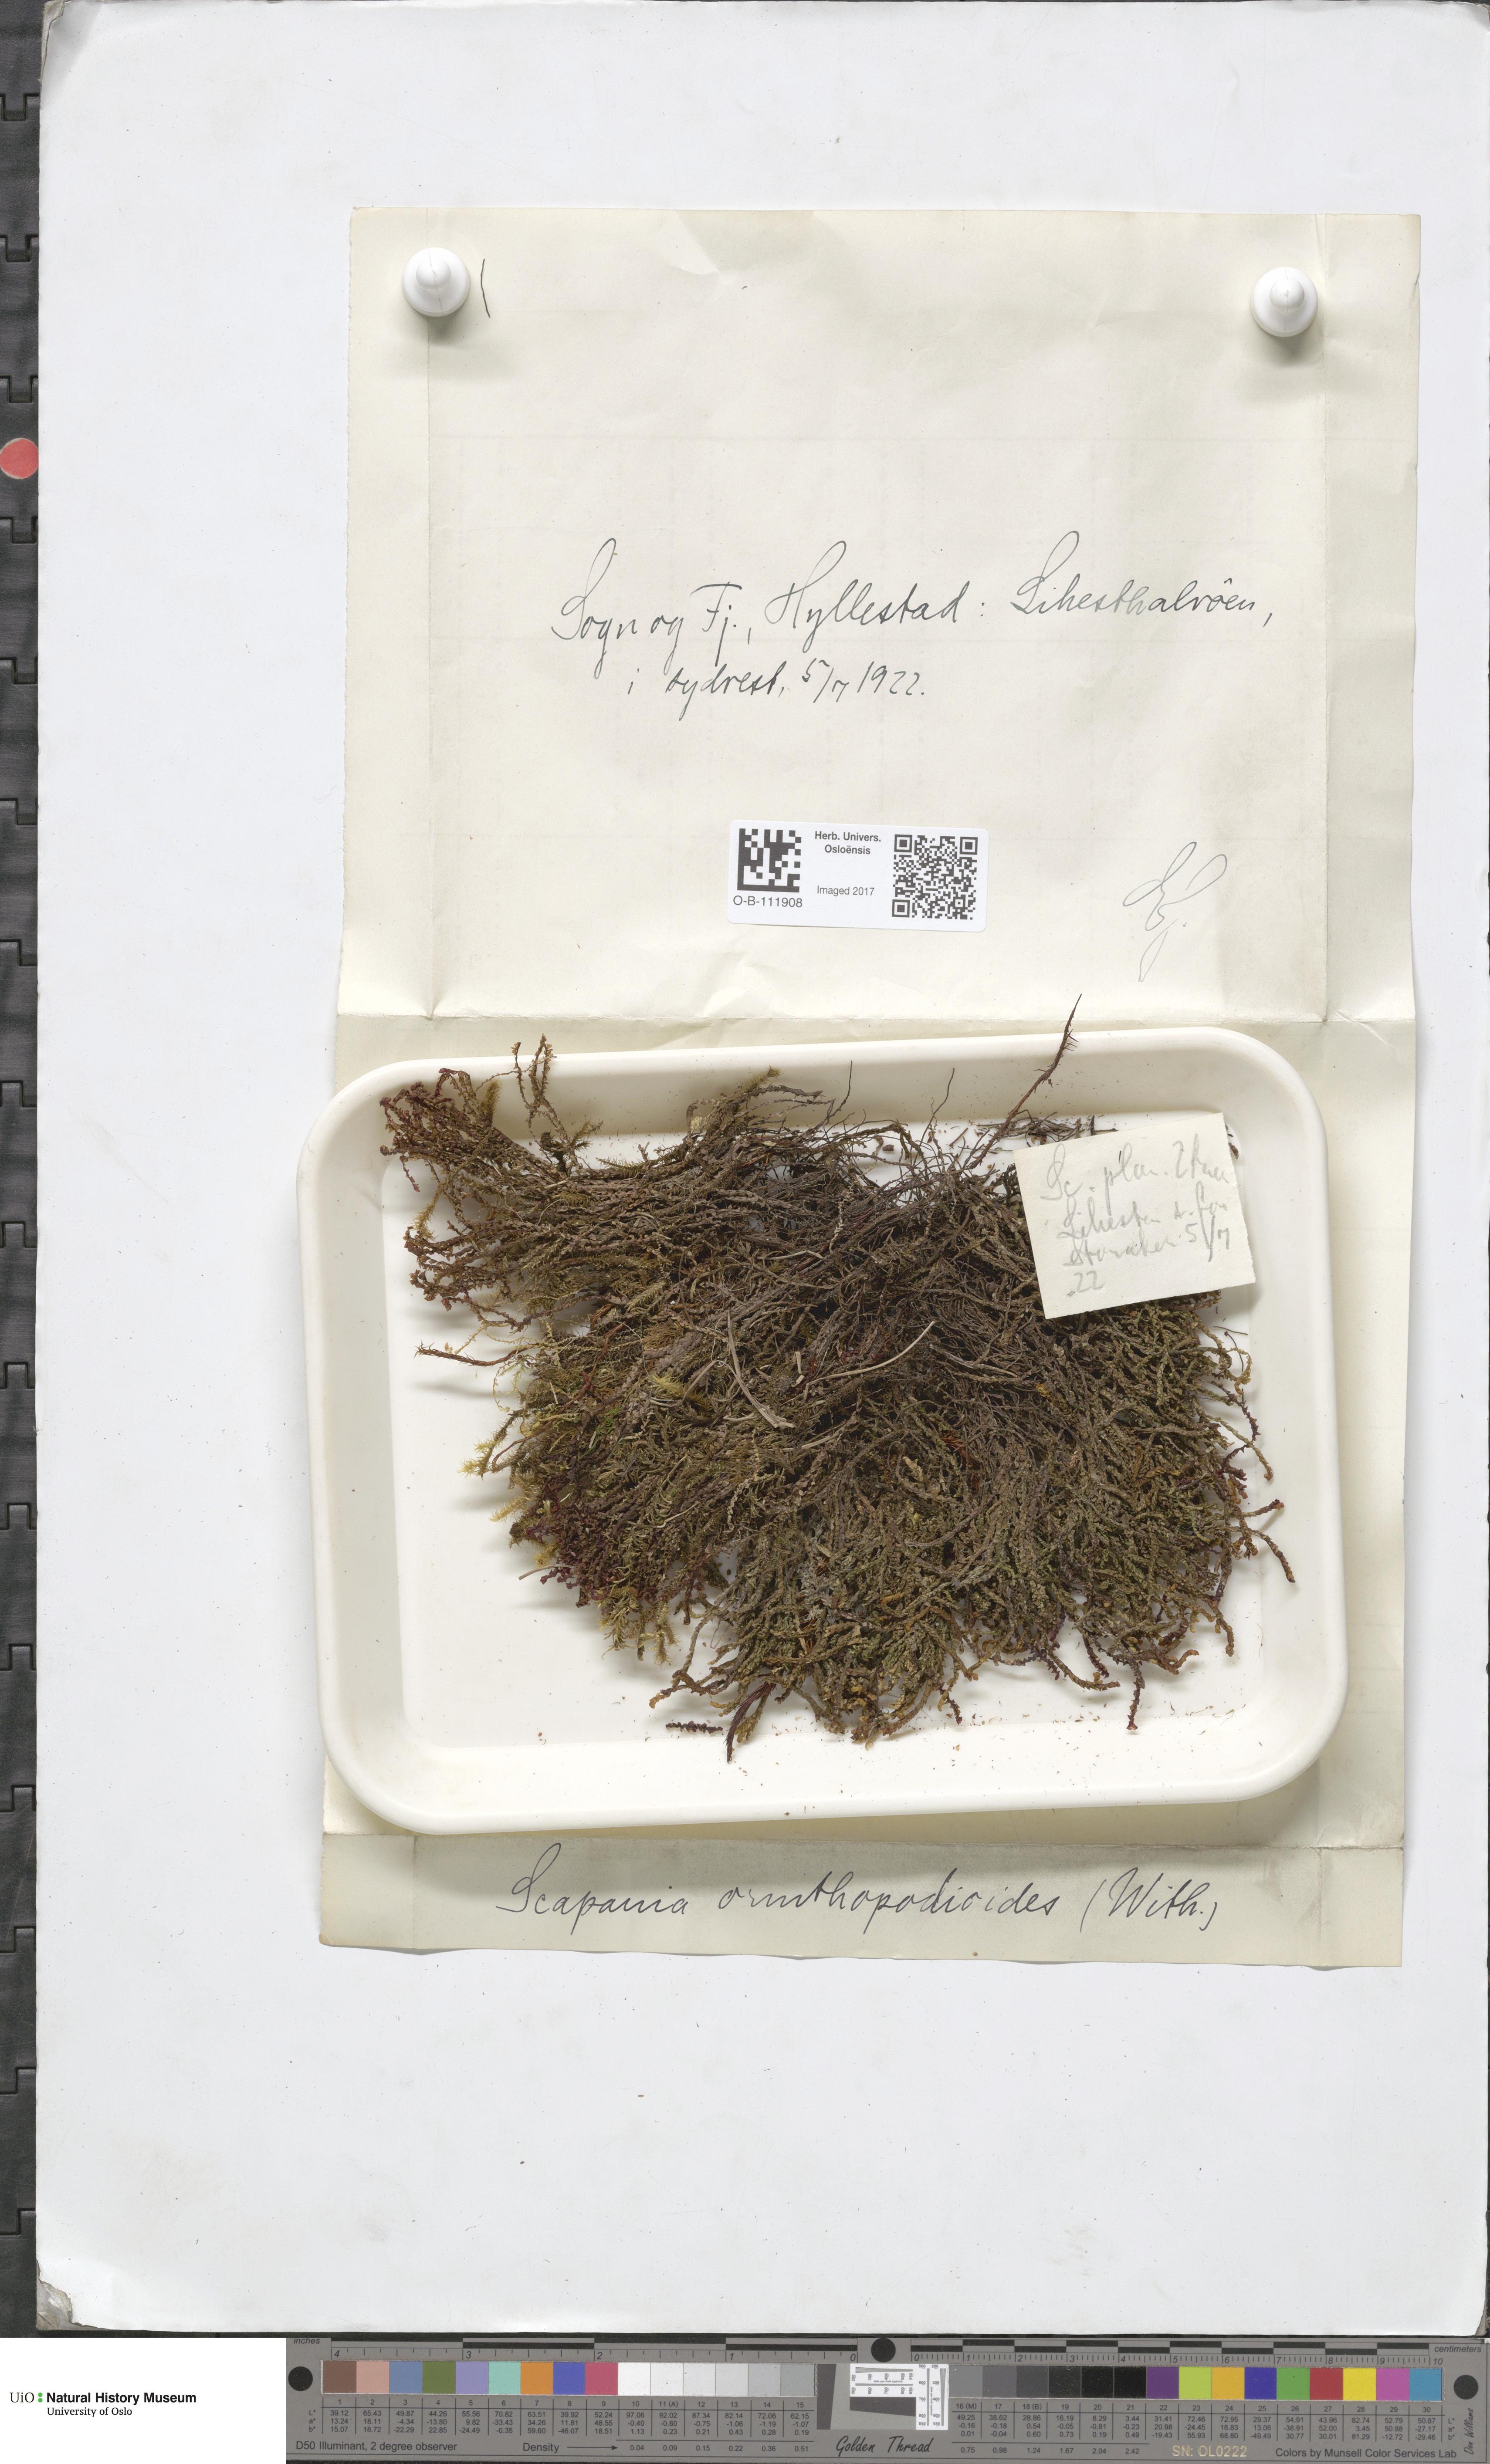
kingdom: Plantae
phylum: Marchantiophyta
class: Jungermanniopsida
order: Jungermanniales
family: Scapaniaceae
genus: Scapania
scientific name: Scapania ornithopodioides
